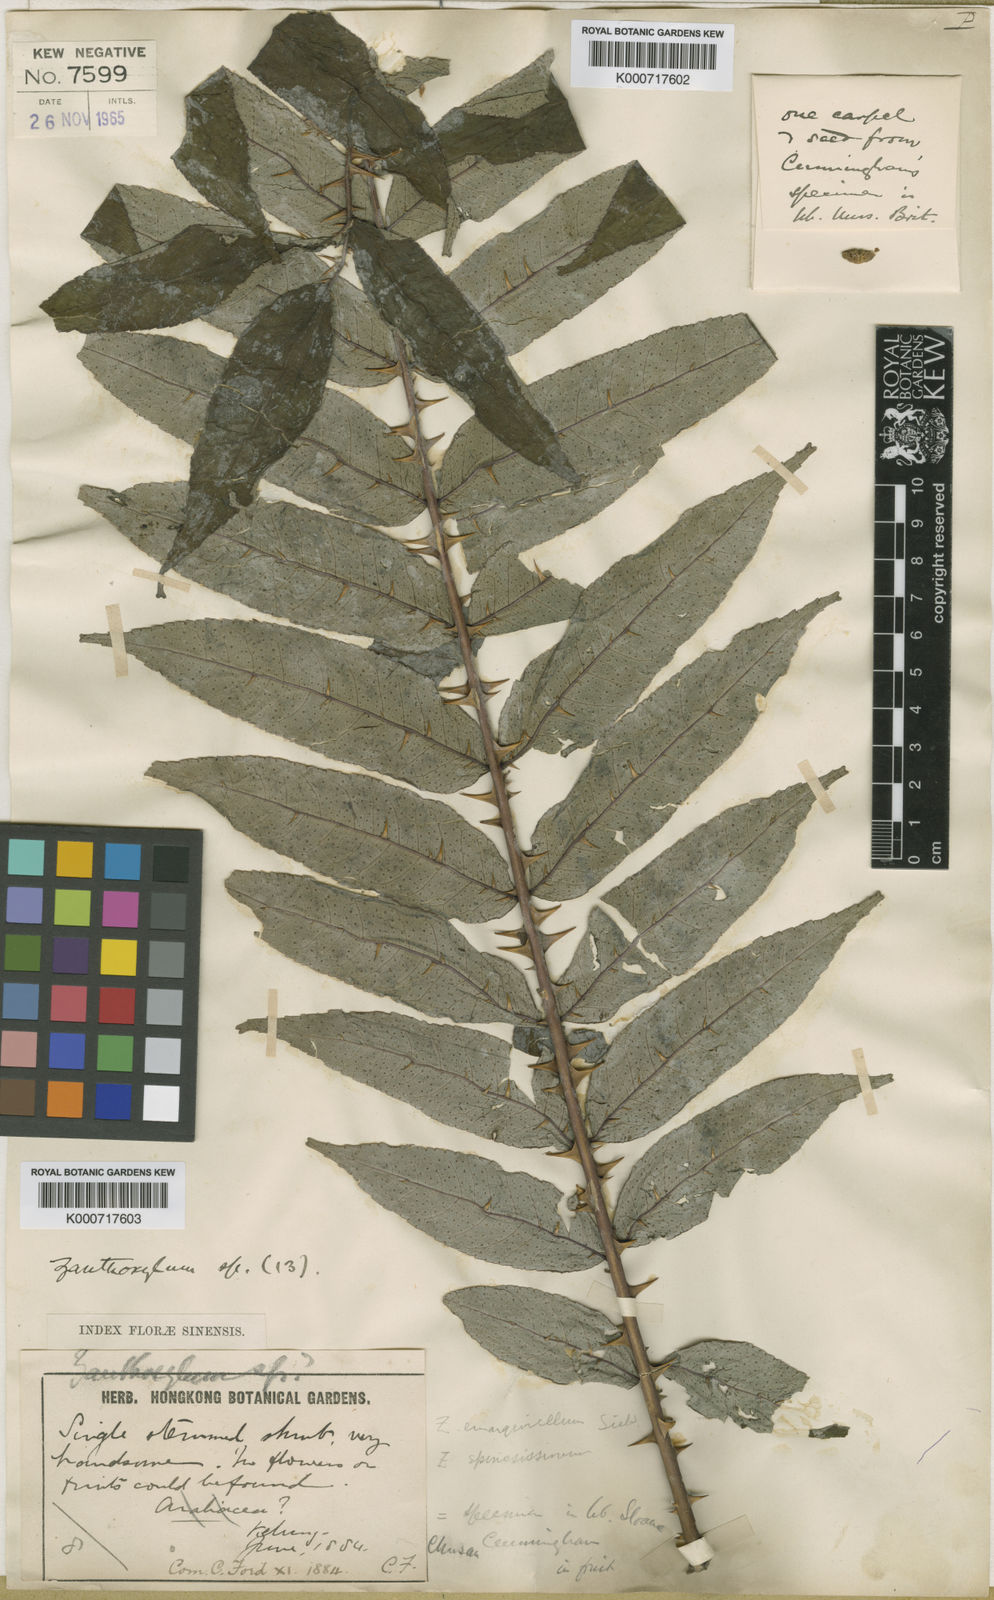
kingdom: Plantae
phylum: Tracheophyta
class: Magnoliopsida
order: Sapindales
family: Rutaceae
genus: Zanthoxylum
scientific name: Zanthoxylum ailanthoides
